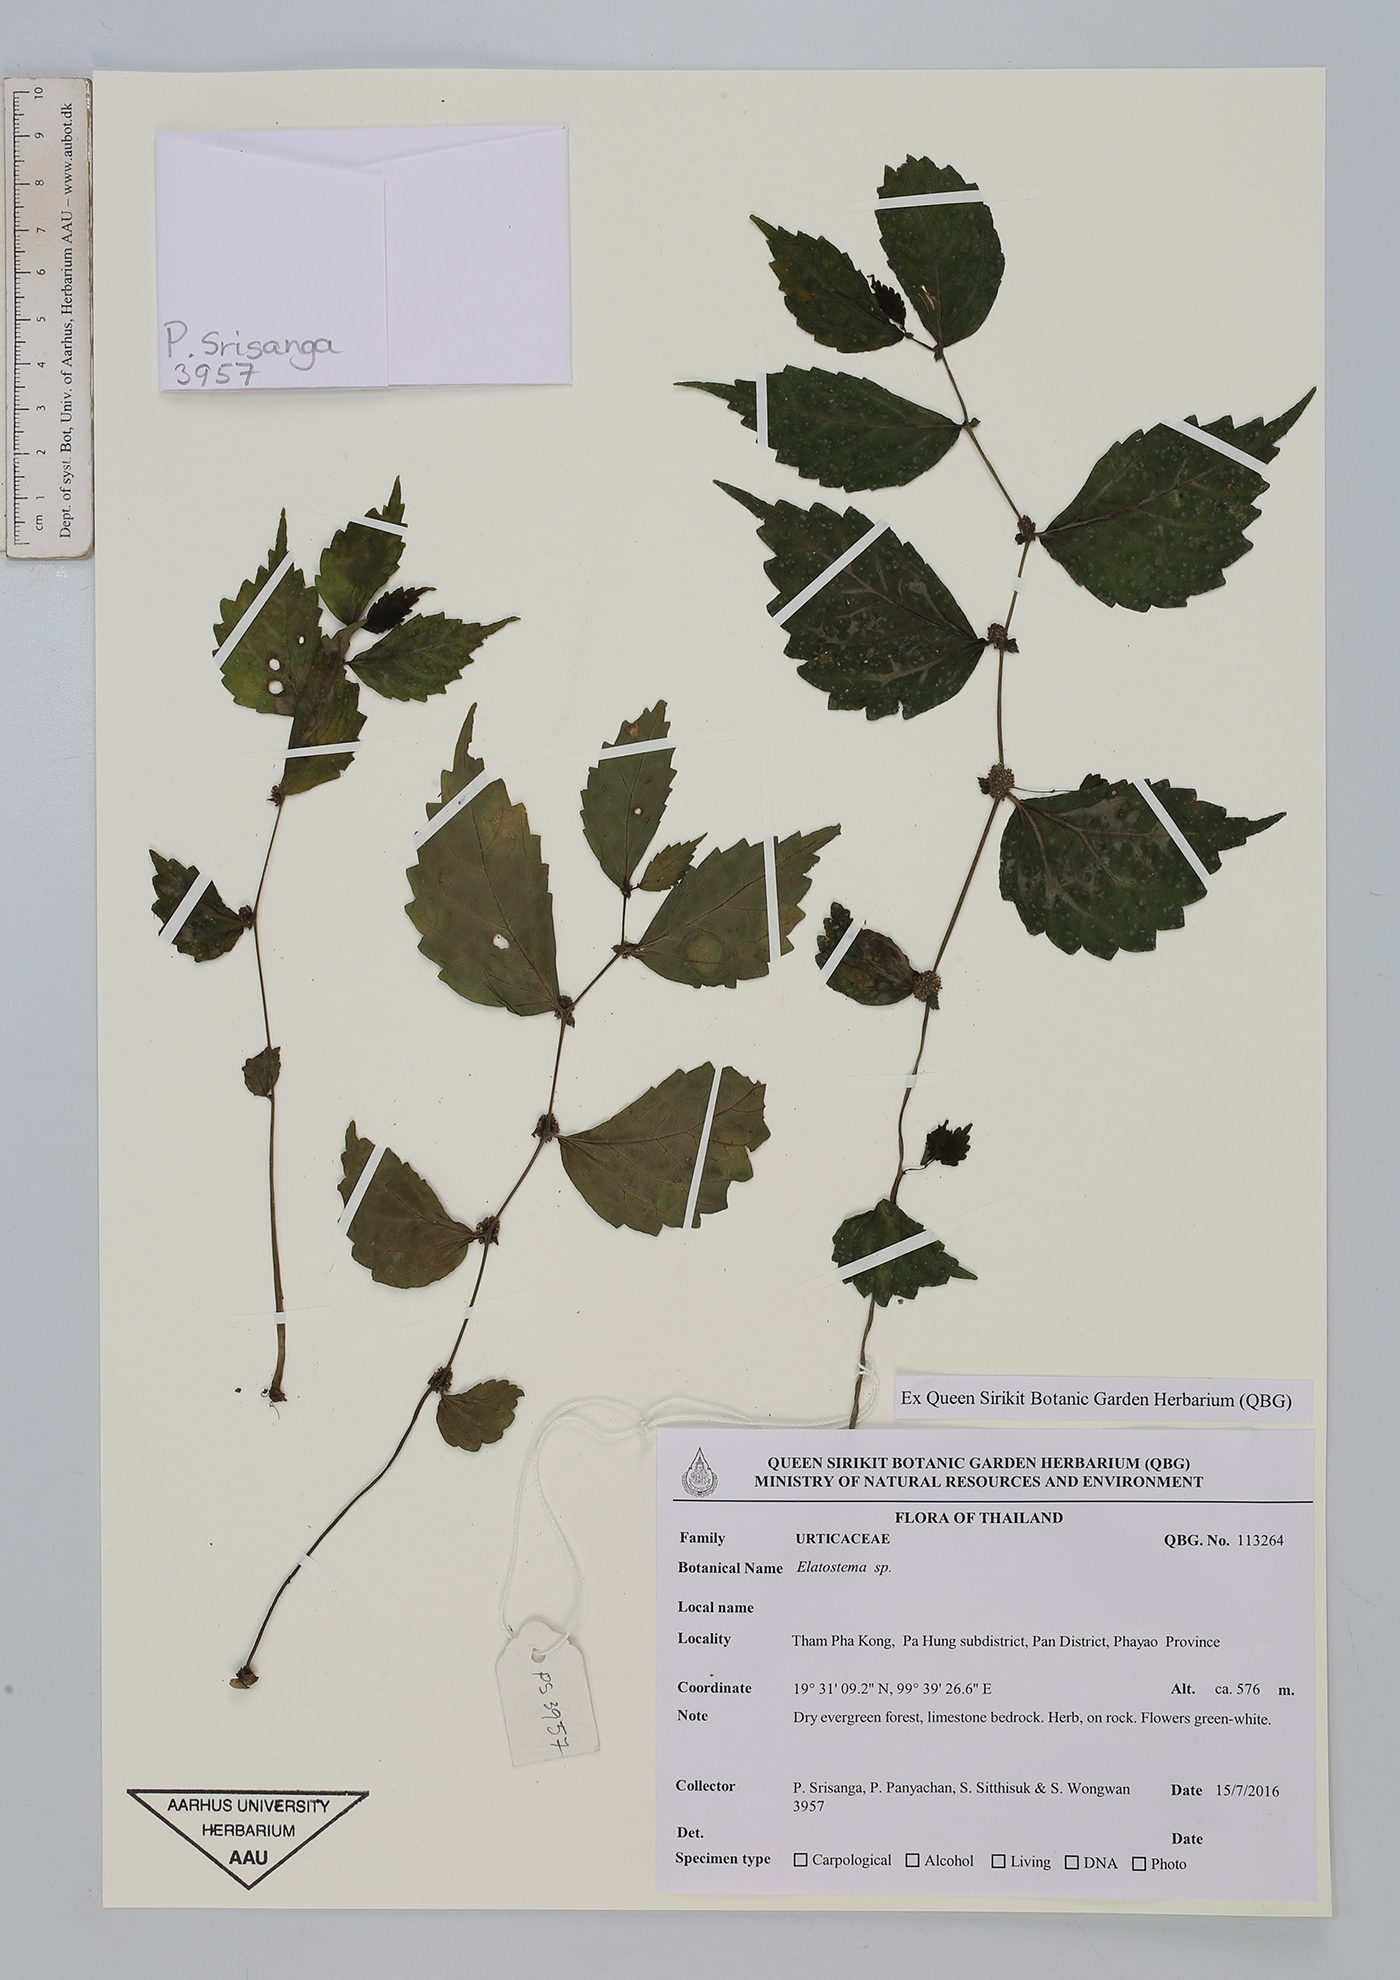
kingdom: Plantae
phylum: Tracheophyta
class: Magnoliopsida
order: Rosales
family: Urticaceae
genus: Elatostema
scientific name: Elatostema bulbiferum
